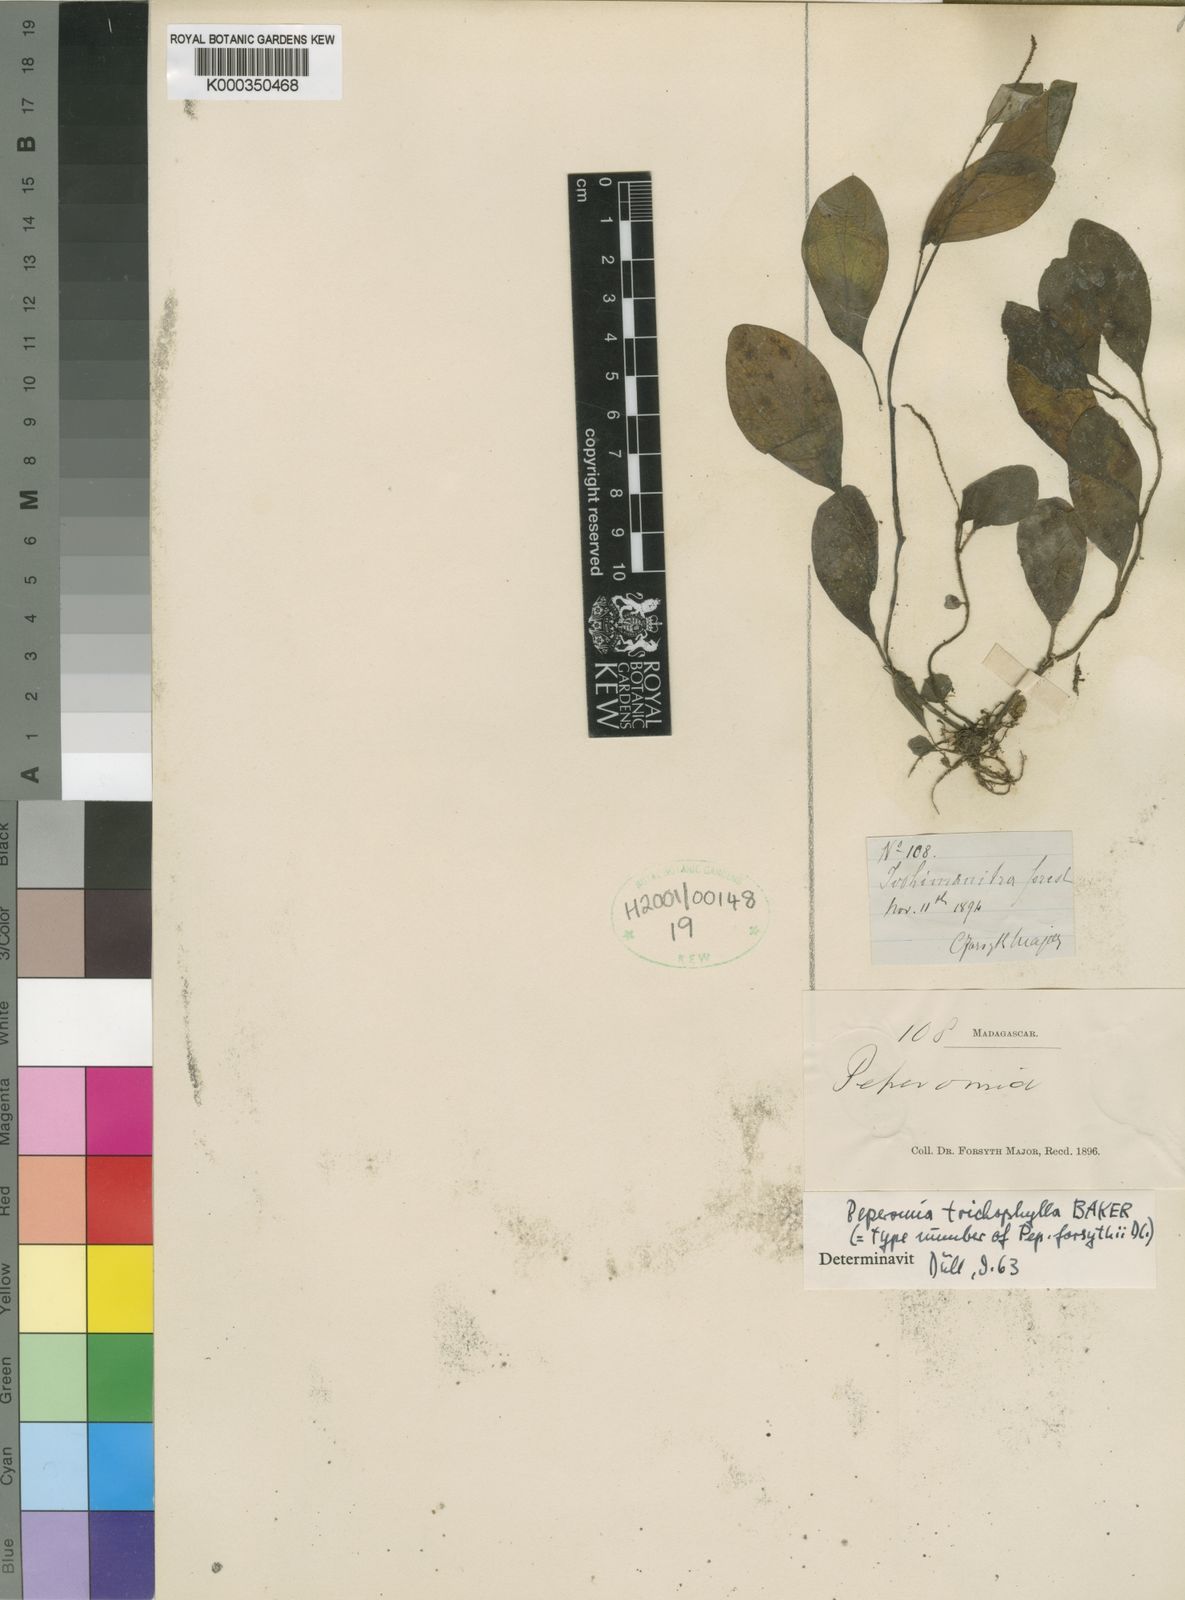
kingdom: Plantae
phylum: Tracheophyta
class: Magnoliopsida
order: Piperales
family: Piperaceae
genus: Peperomia
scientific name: Peperomia trichophylla
